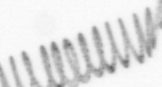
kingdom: Chromista
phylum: Ochrophyta
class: Bacillariophyceae
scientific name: Bacillariophyceae
